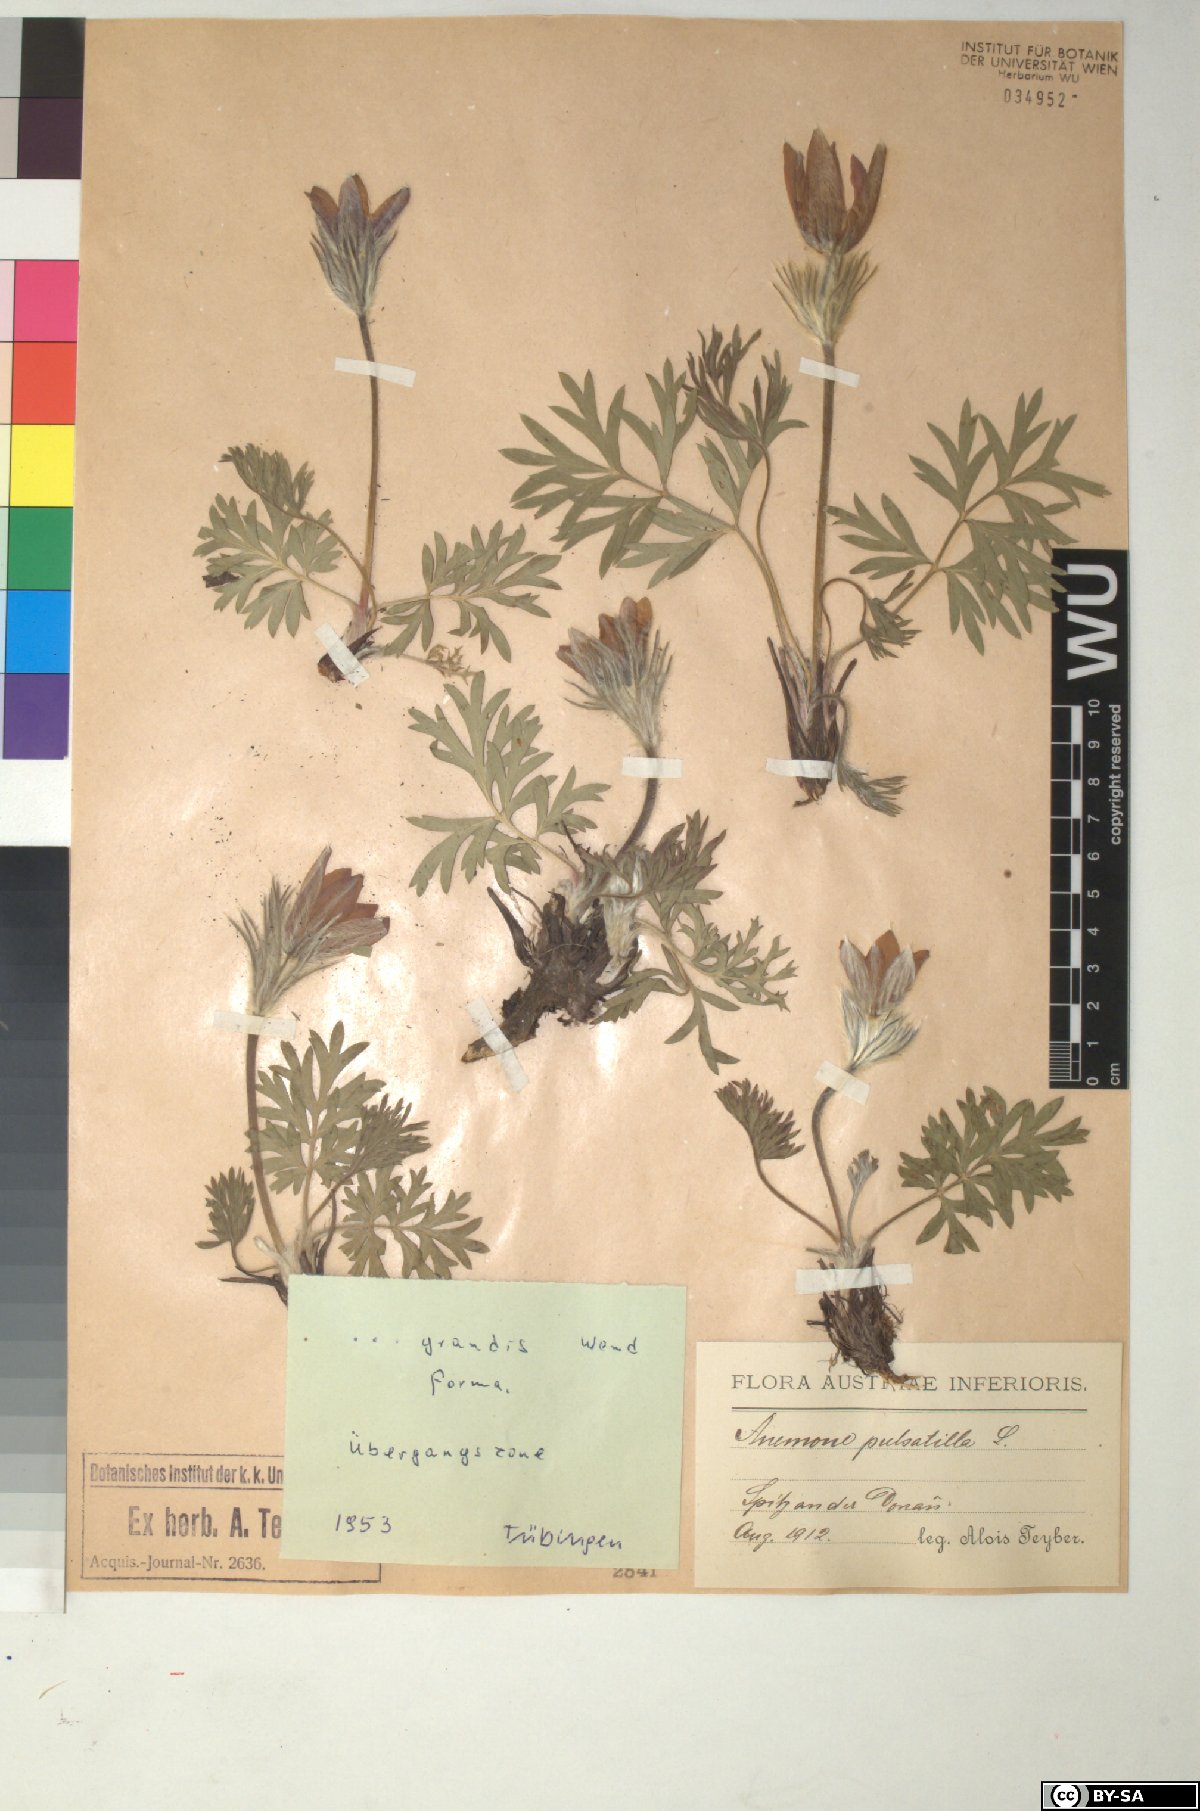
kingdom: Plantae
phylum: Tracheophyta
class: Magnoliopsida
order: Ranunculales
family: Ranunculaceae
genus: Pulsatilla
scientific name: Pulsatilla grandis
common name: Greater pasque flower
